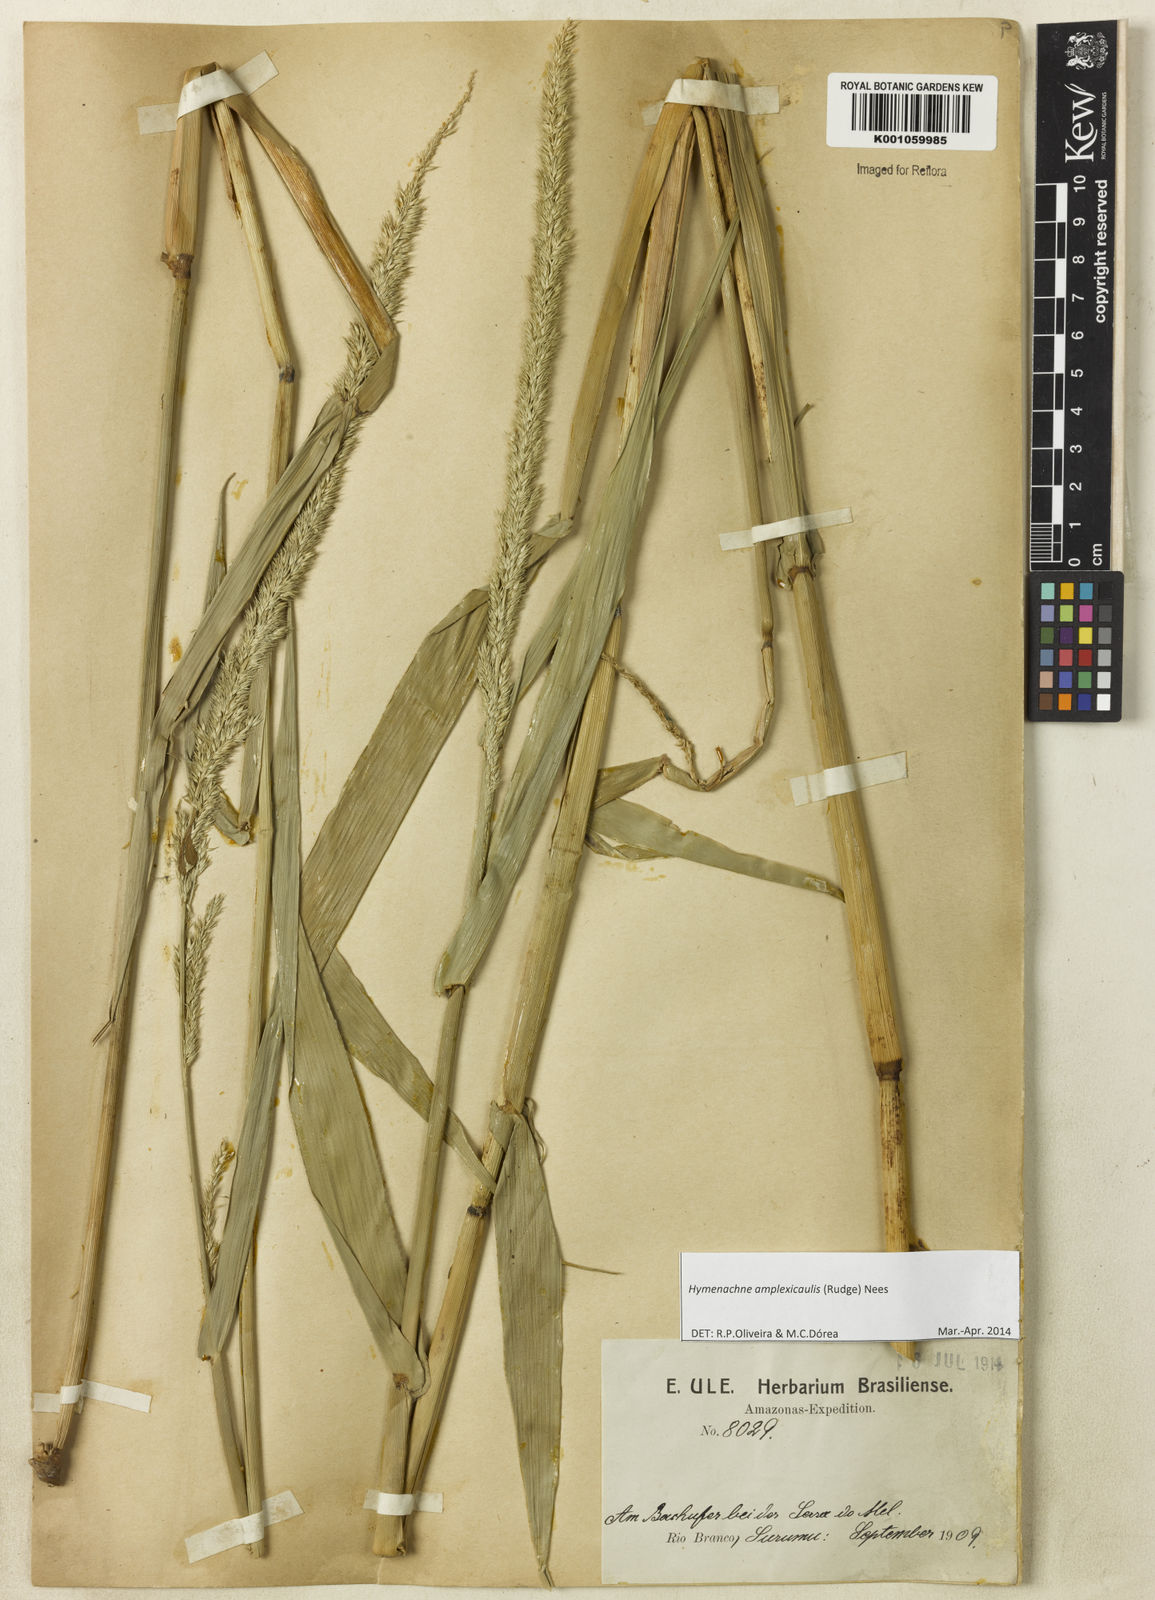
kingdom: Plantae
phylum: Tracheophyta
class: Liliopsida
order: Poales
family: Poaceae
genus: Hymenachne
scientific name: Hymenachne amplexicaulis
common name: Olive hymenachne
